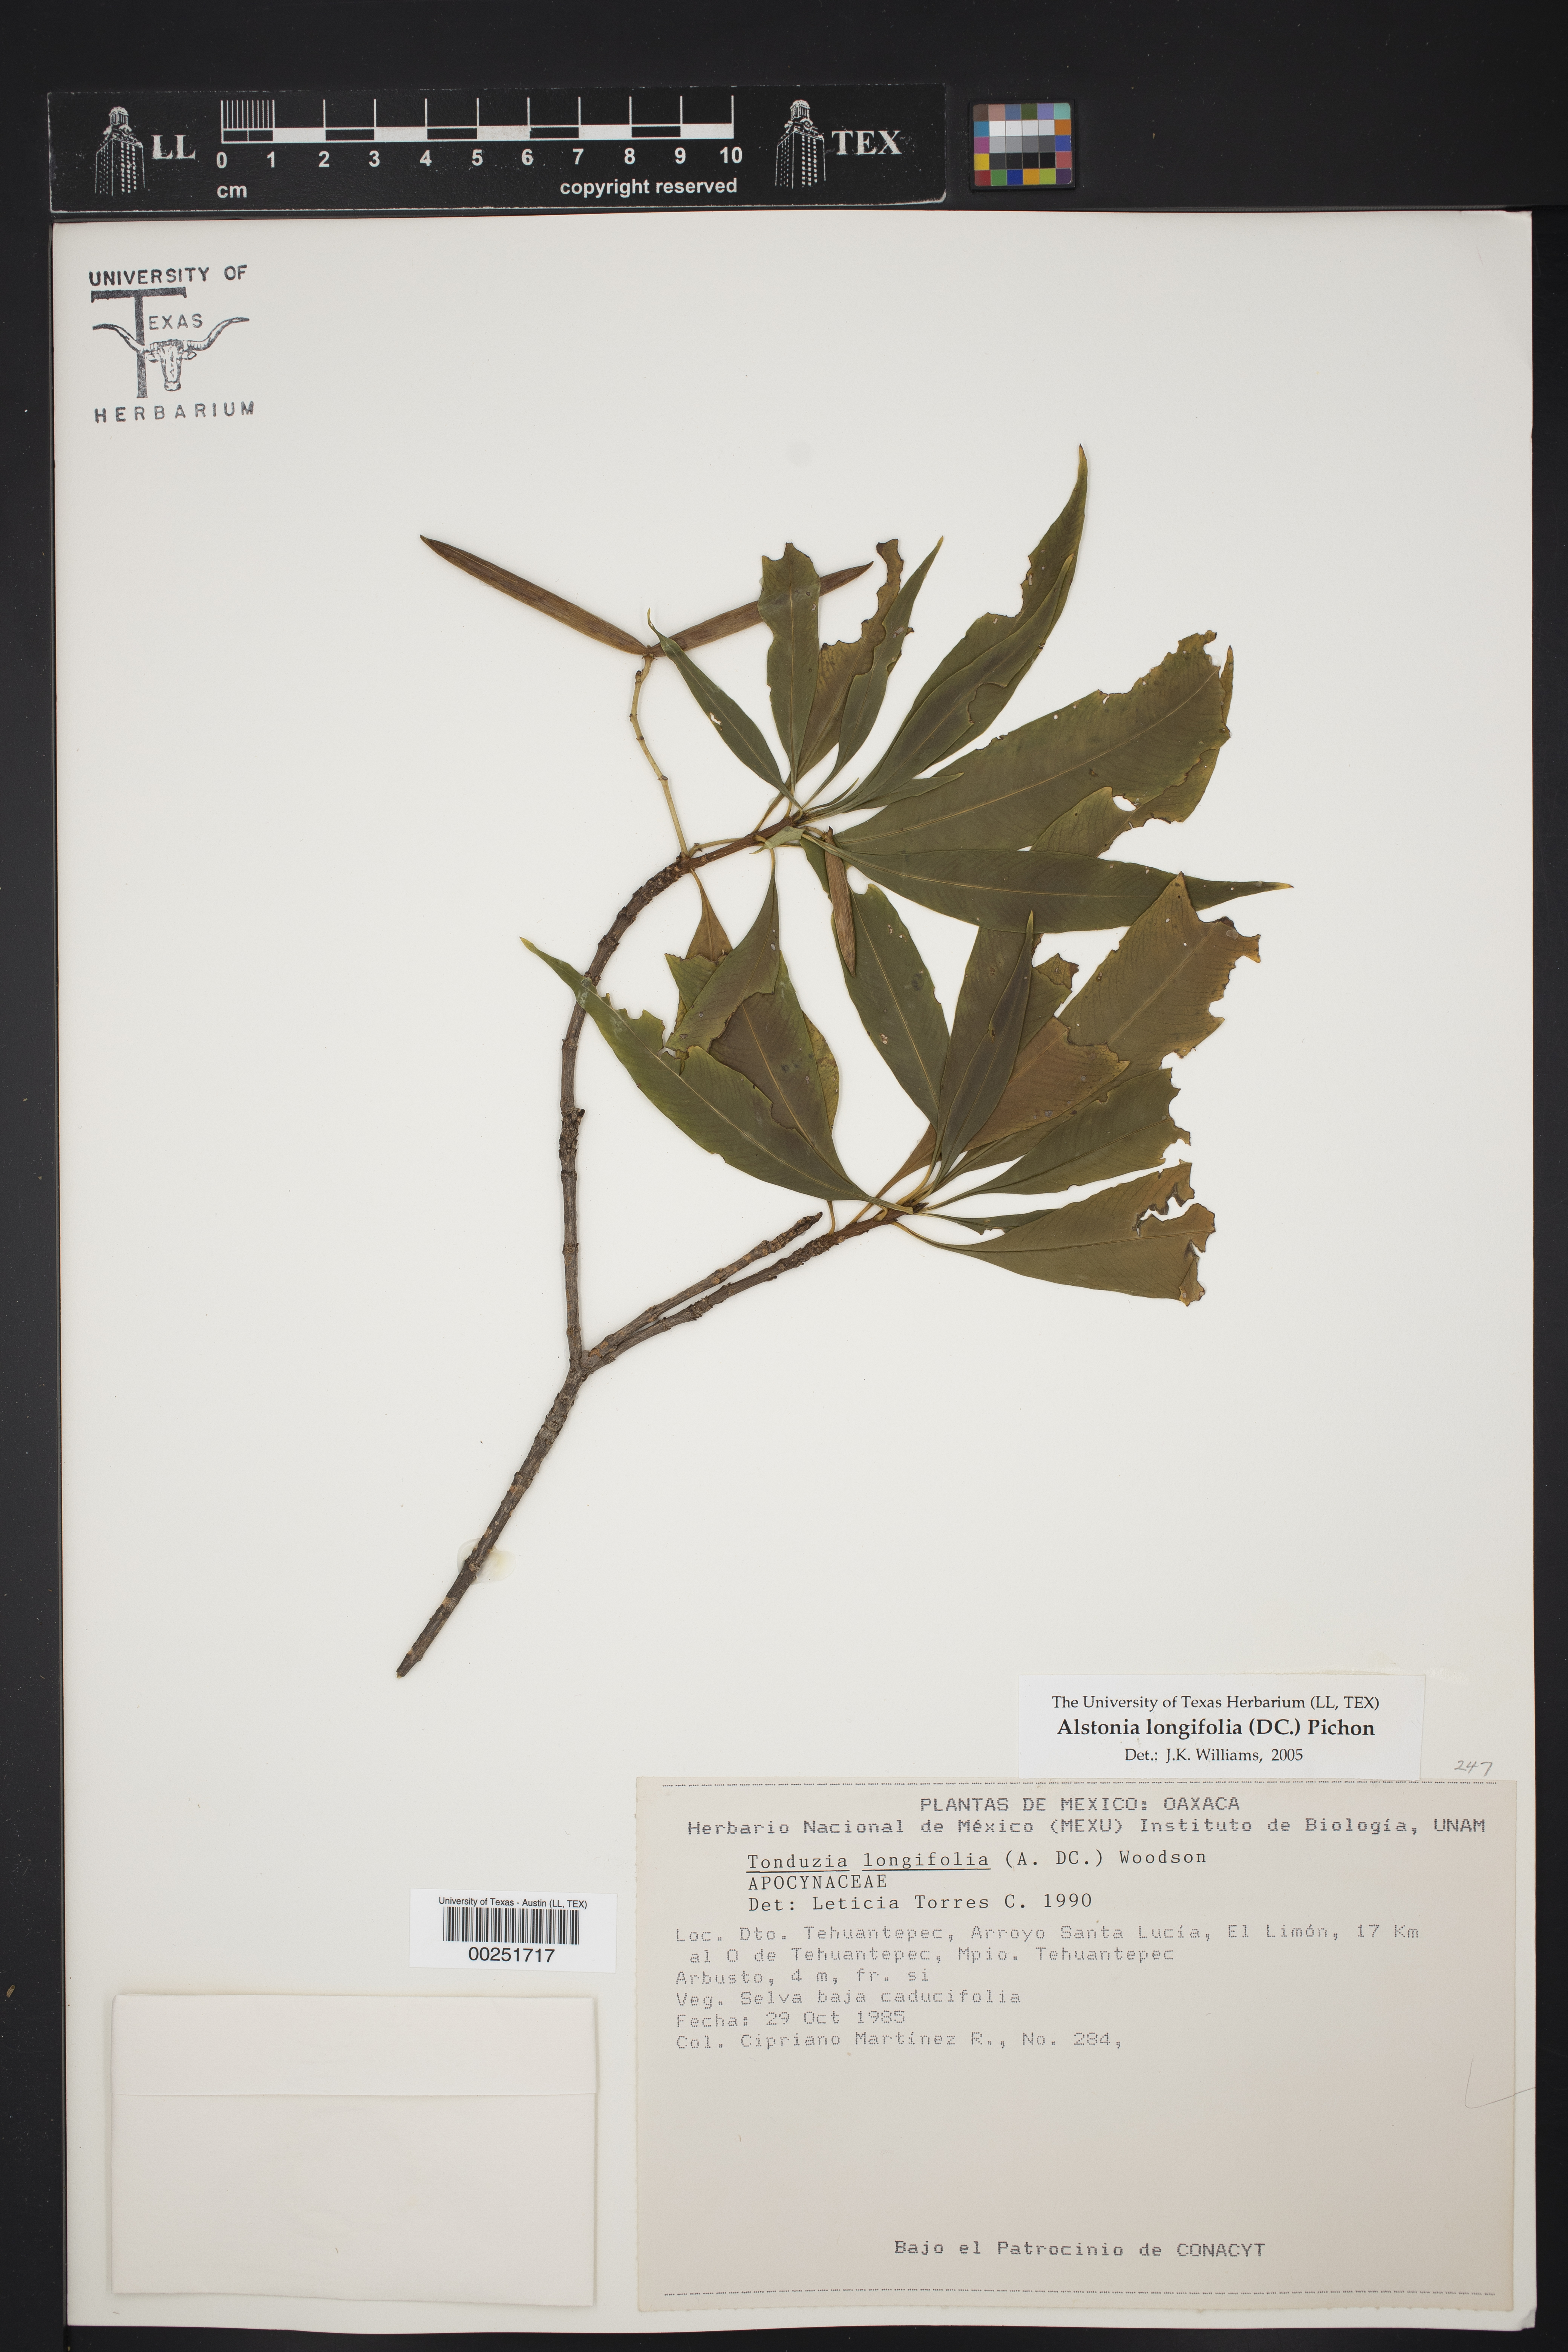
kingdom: Plantae
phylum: Tracheophyta
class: Magnoliopsida
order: Gentianales
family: Apocynaceae
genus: Tonduzia
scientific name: Tonduzia longifolia
